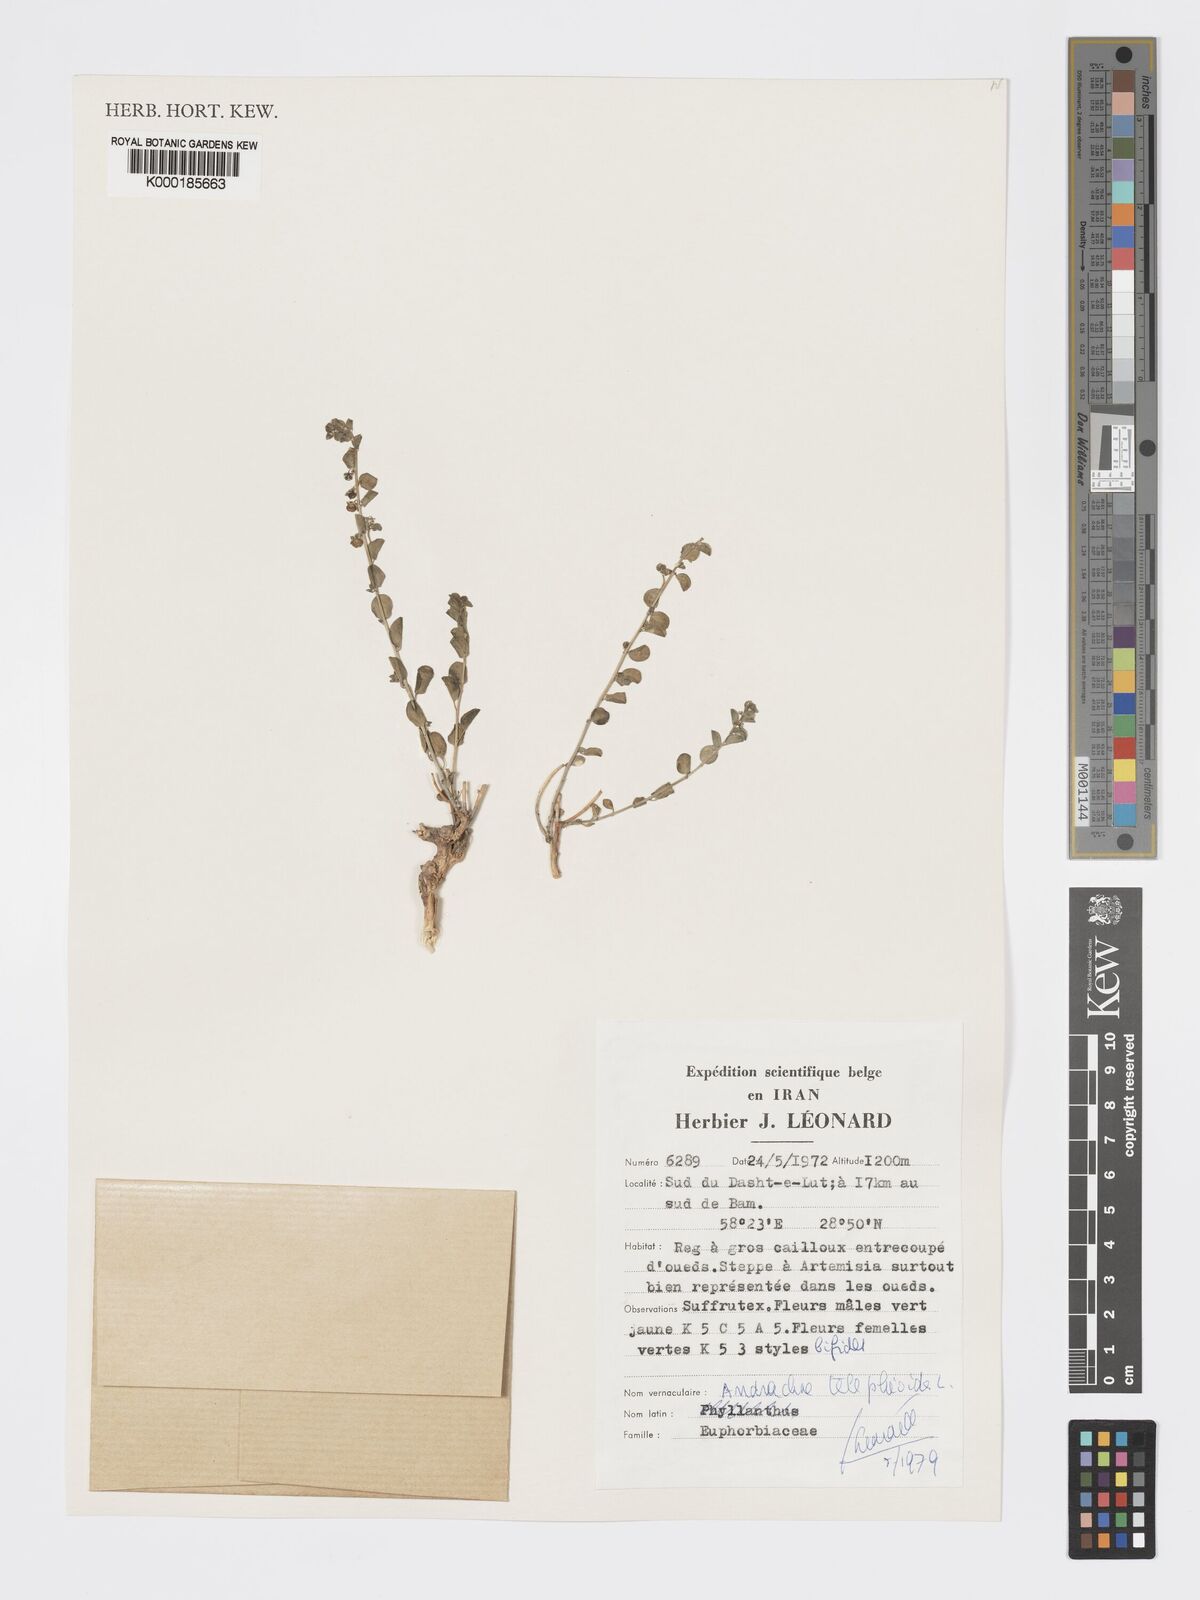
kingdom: Plantae
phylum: Tracheophyta
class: Magnoliopsida
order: Malpighiales
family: Phyllanthaceae
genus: Andrachne
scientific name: Andrachne telephioides
